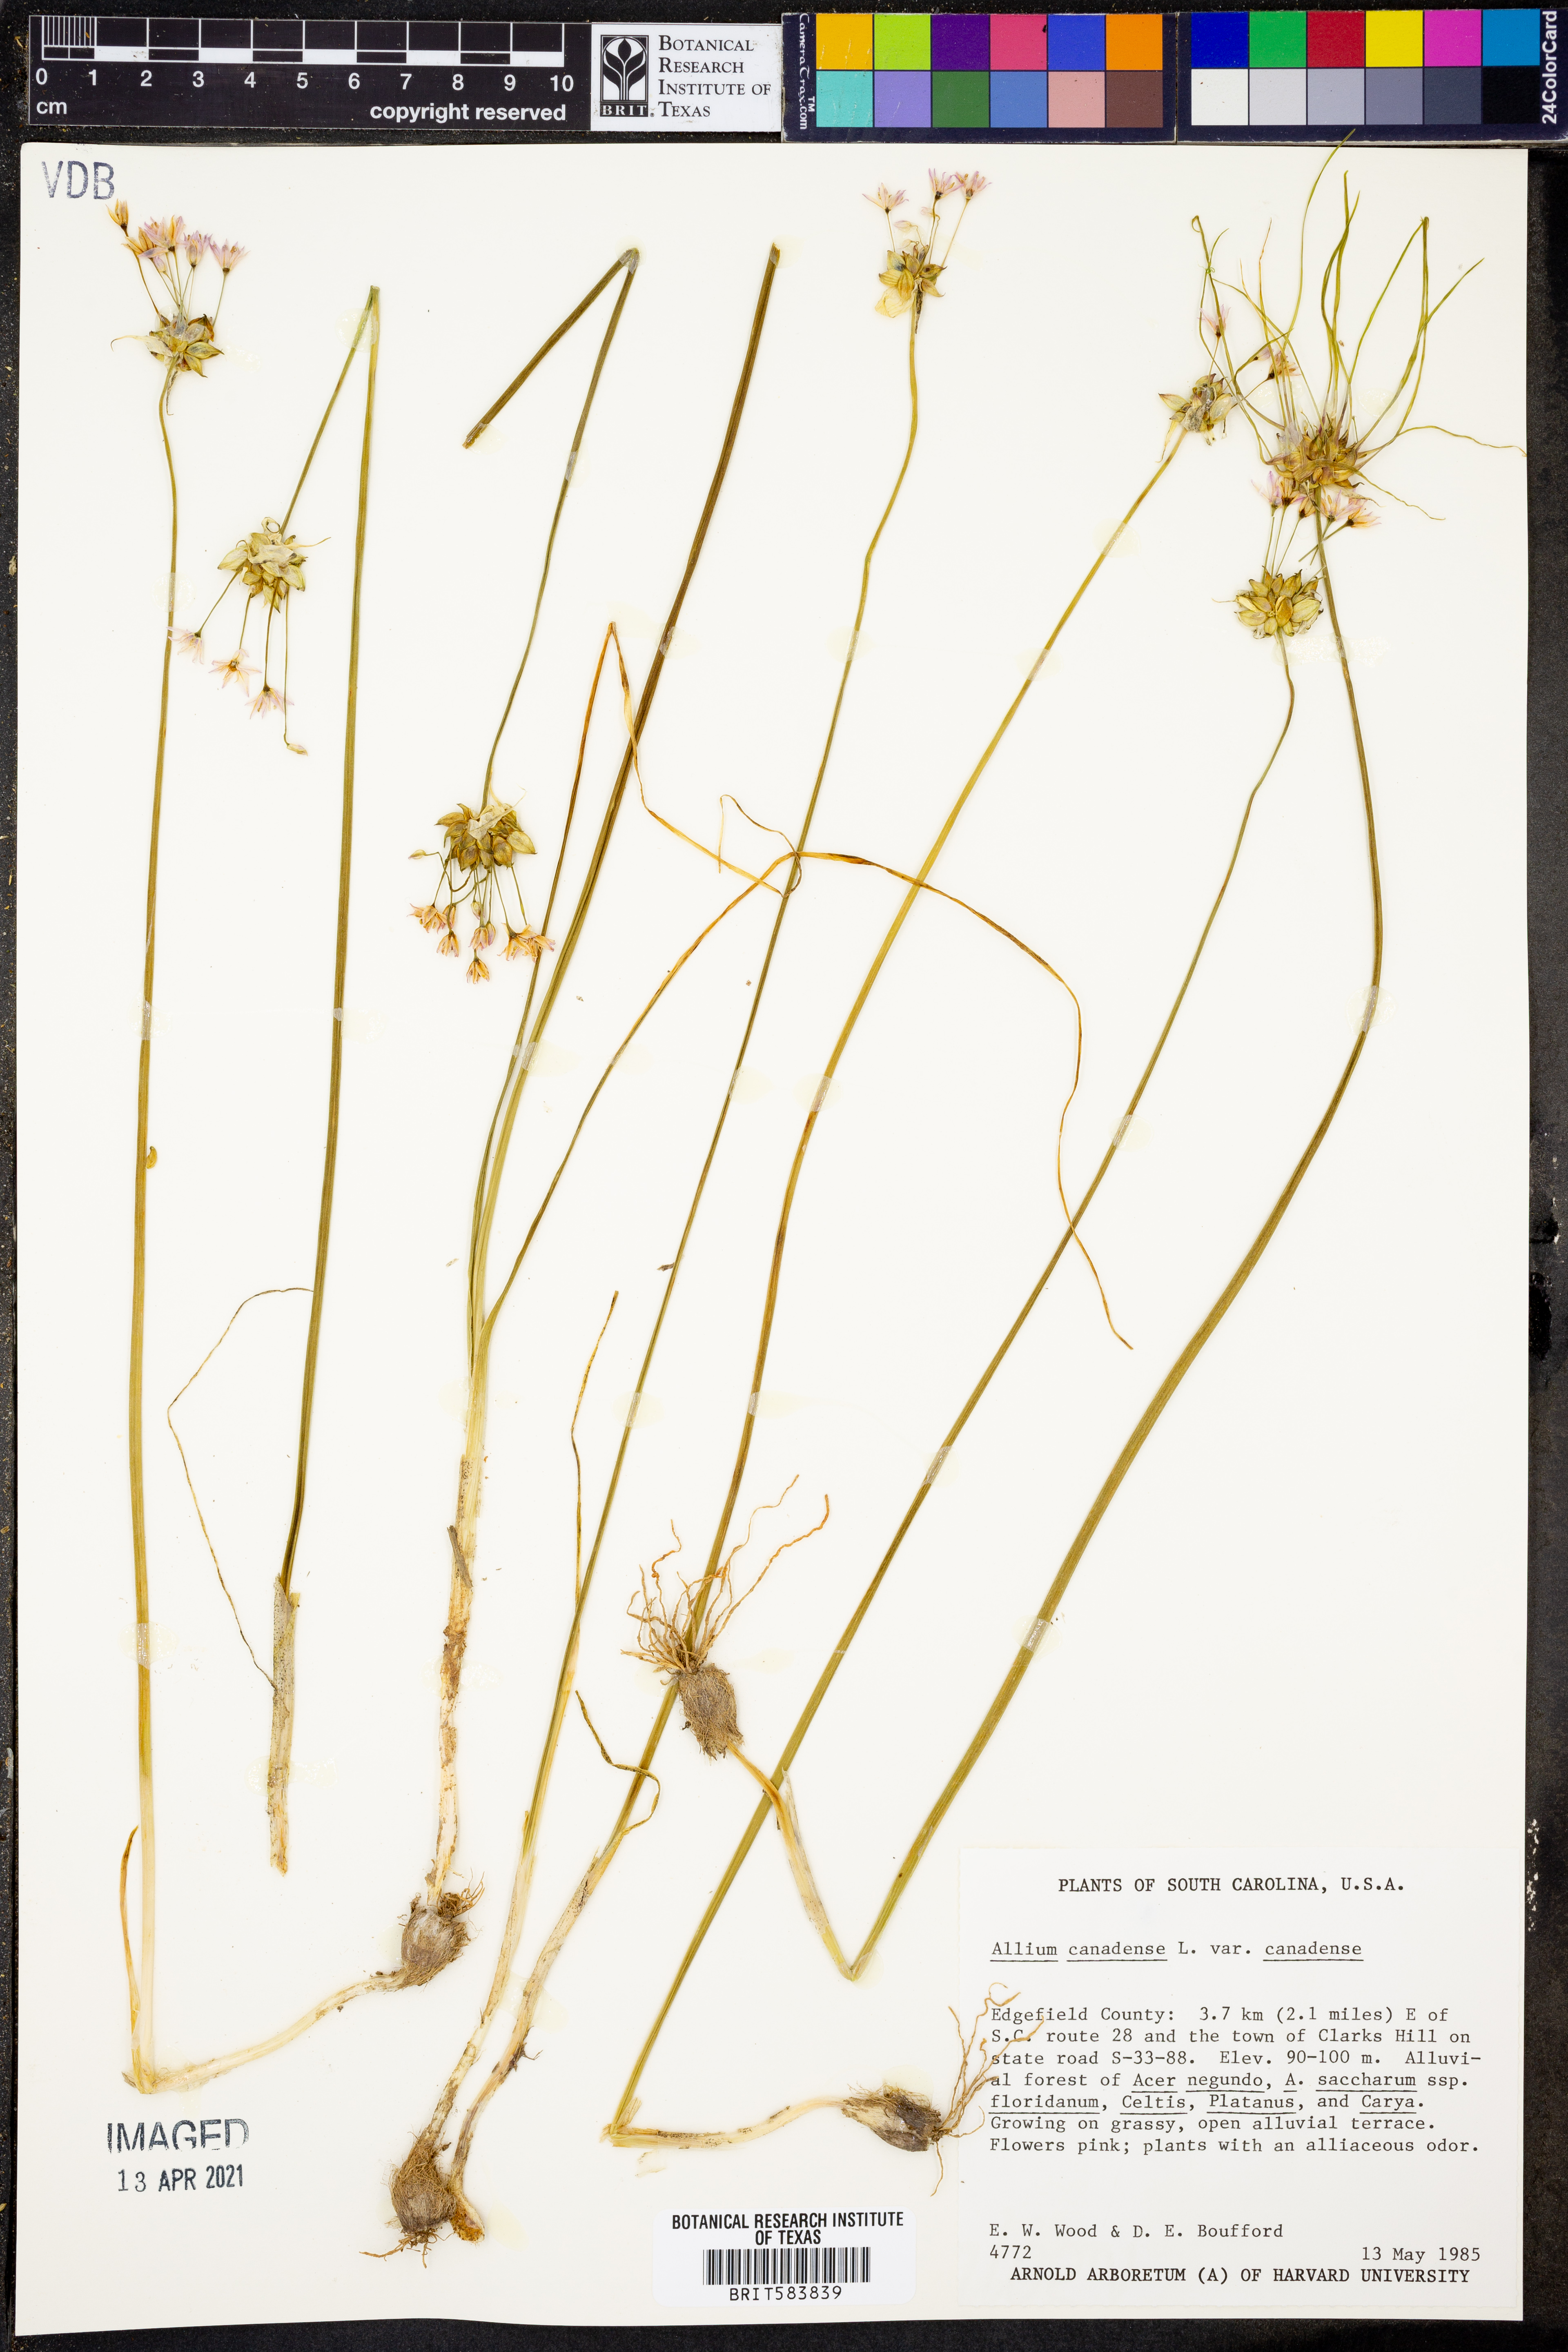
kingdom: Plantae
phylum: Tracheophyta
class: Liliopsida
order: Asparagales
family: Amaryllidaceae
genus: Allium
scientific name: Allium canadense
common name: Meadow garlic
